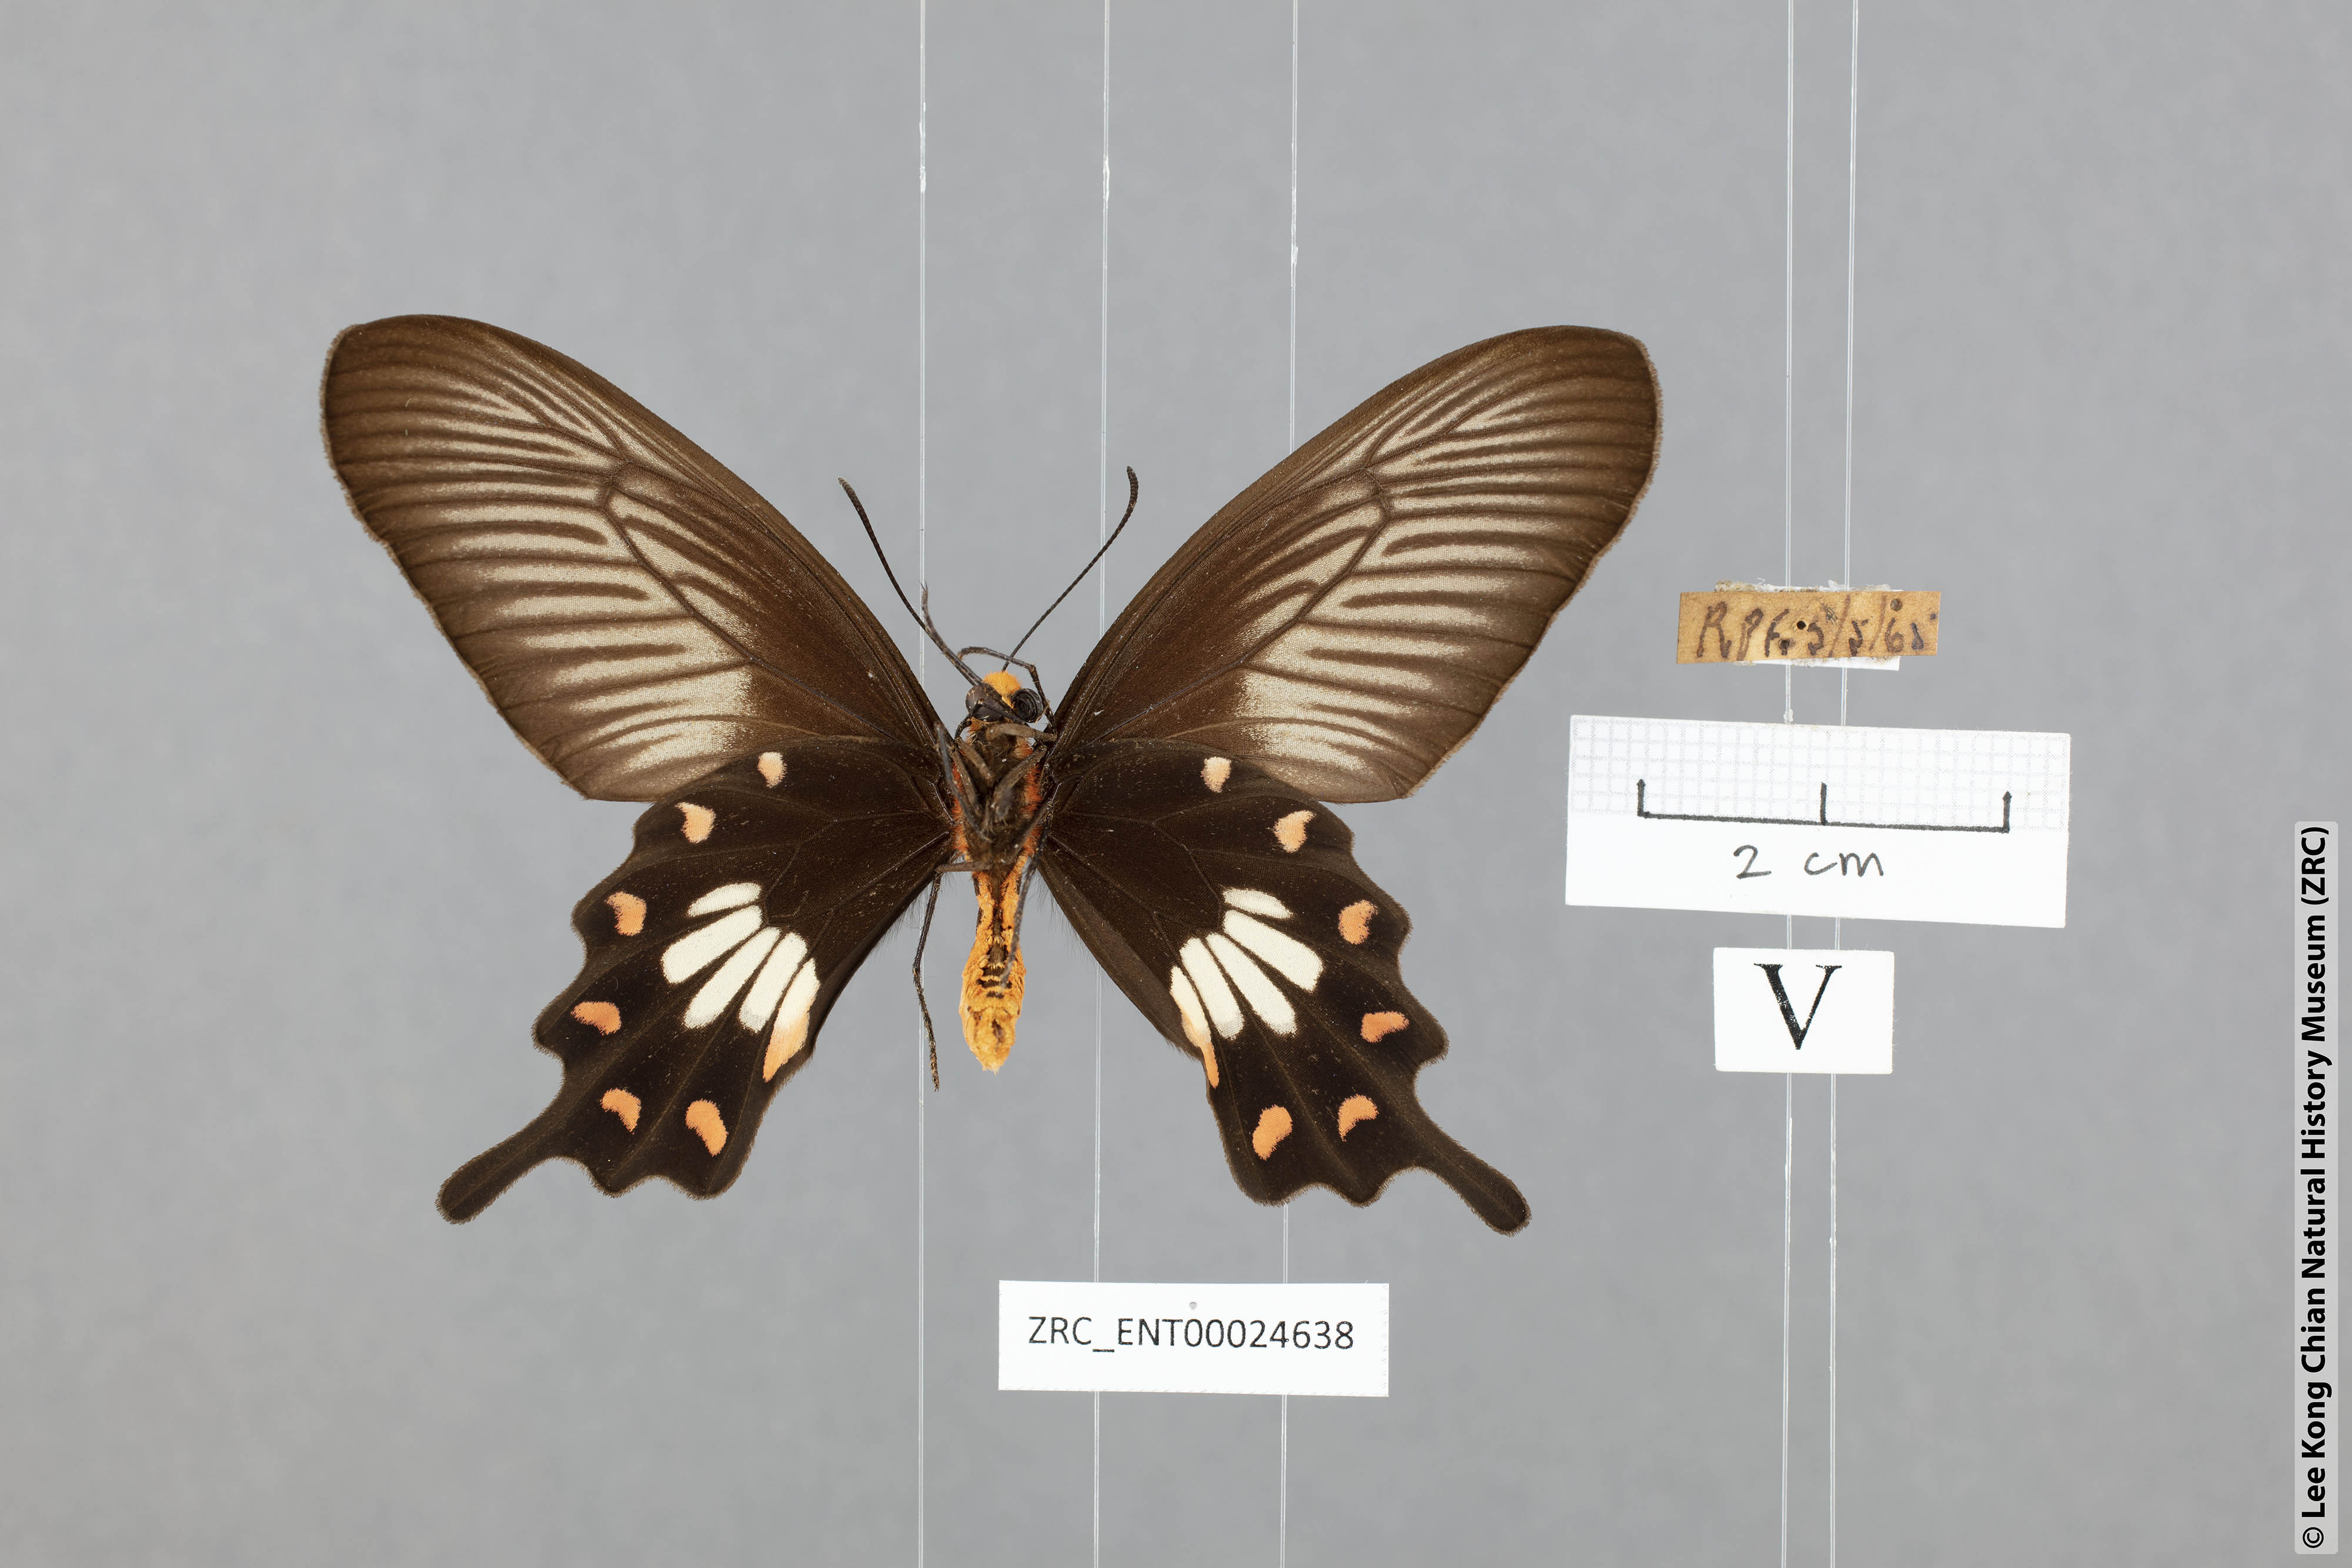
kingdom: Animalia
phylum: Arthropoda
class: Insecta
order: Lepidoptera
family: Papilionidae
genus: Pachliopta
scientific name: Pachliopta aristolochiae
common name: Common rose
